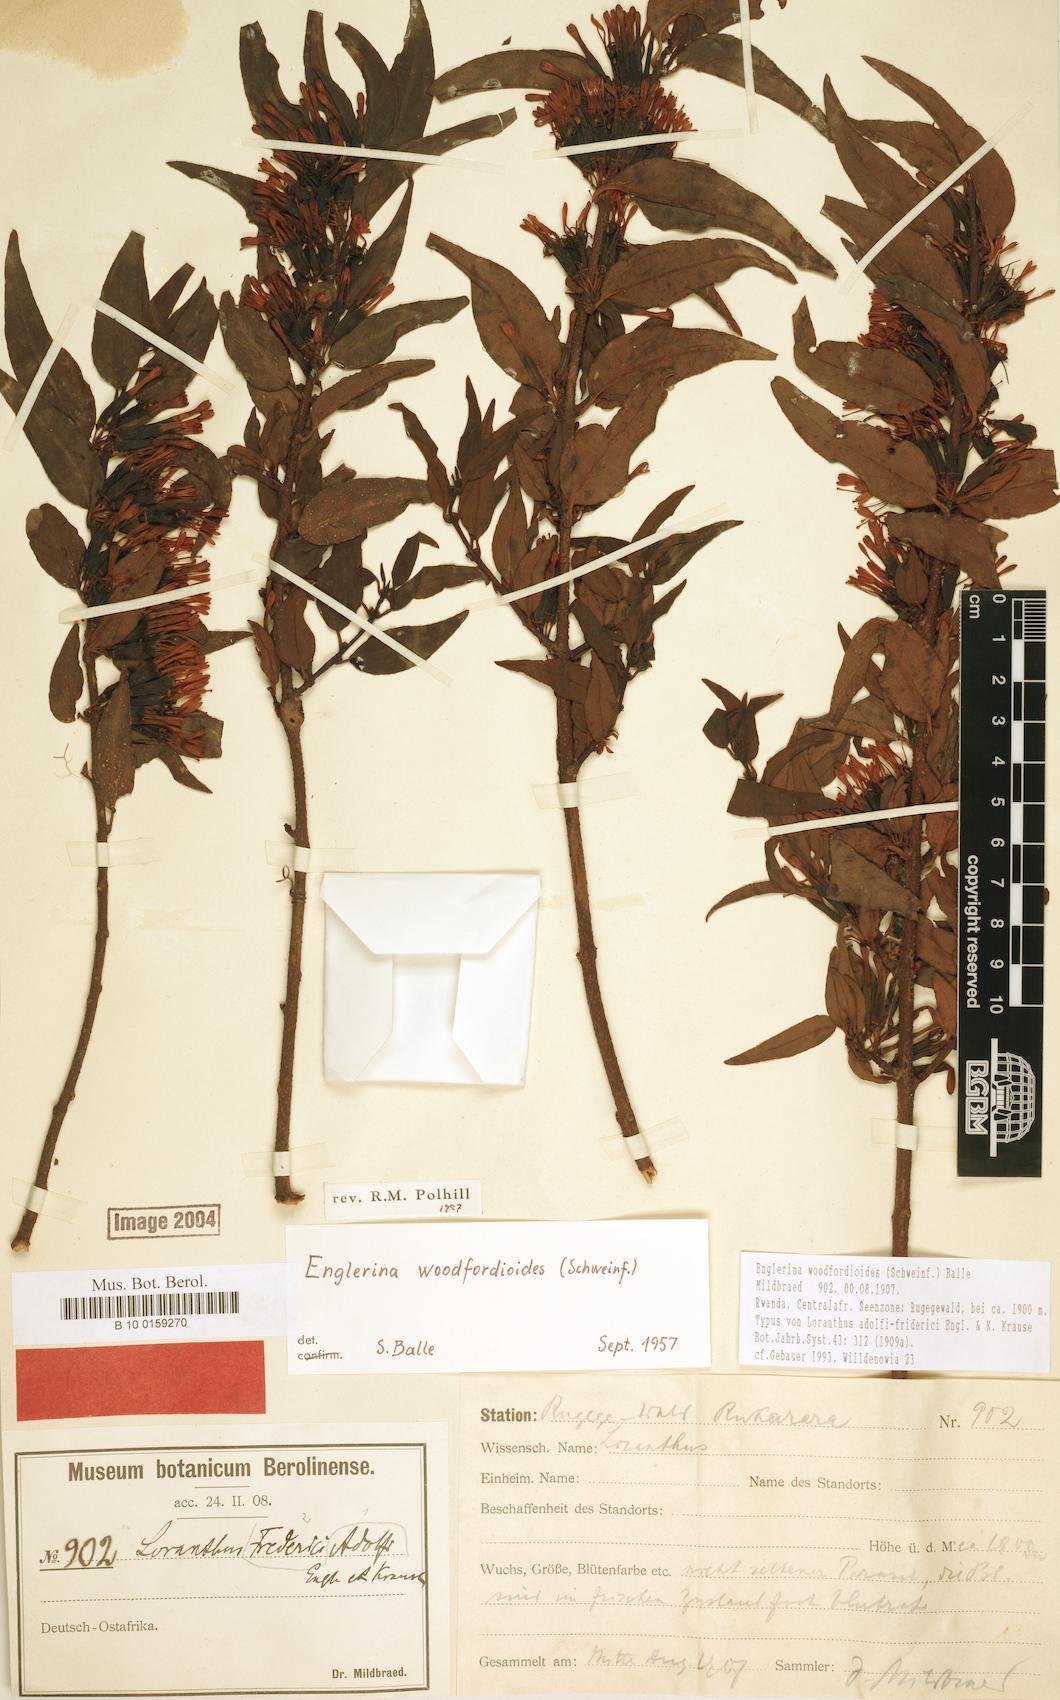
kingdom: Plantae
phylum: Tracheophyta
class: Magnoliopsida
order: Santalales
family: Loranthaceae
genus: Englerina
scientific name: Englerina woodfordioides
